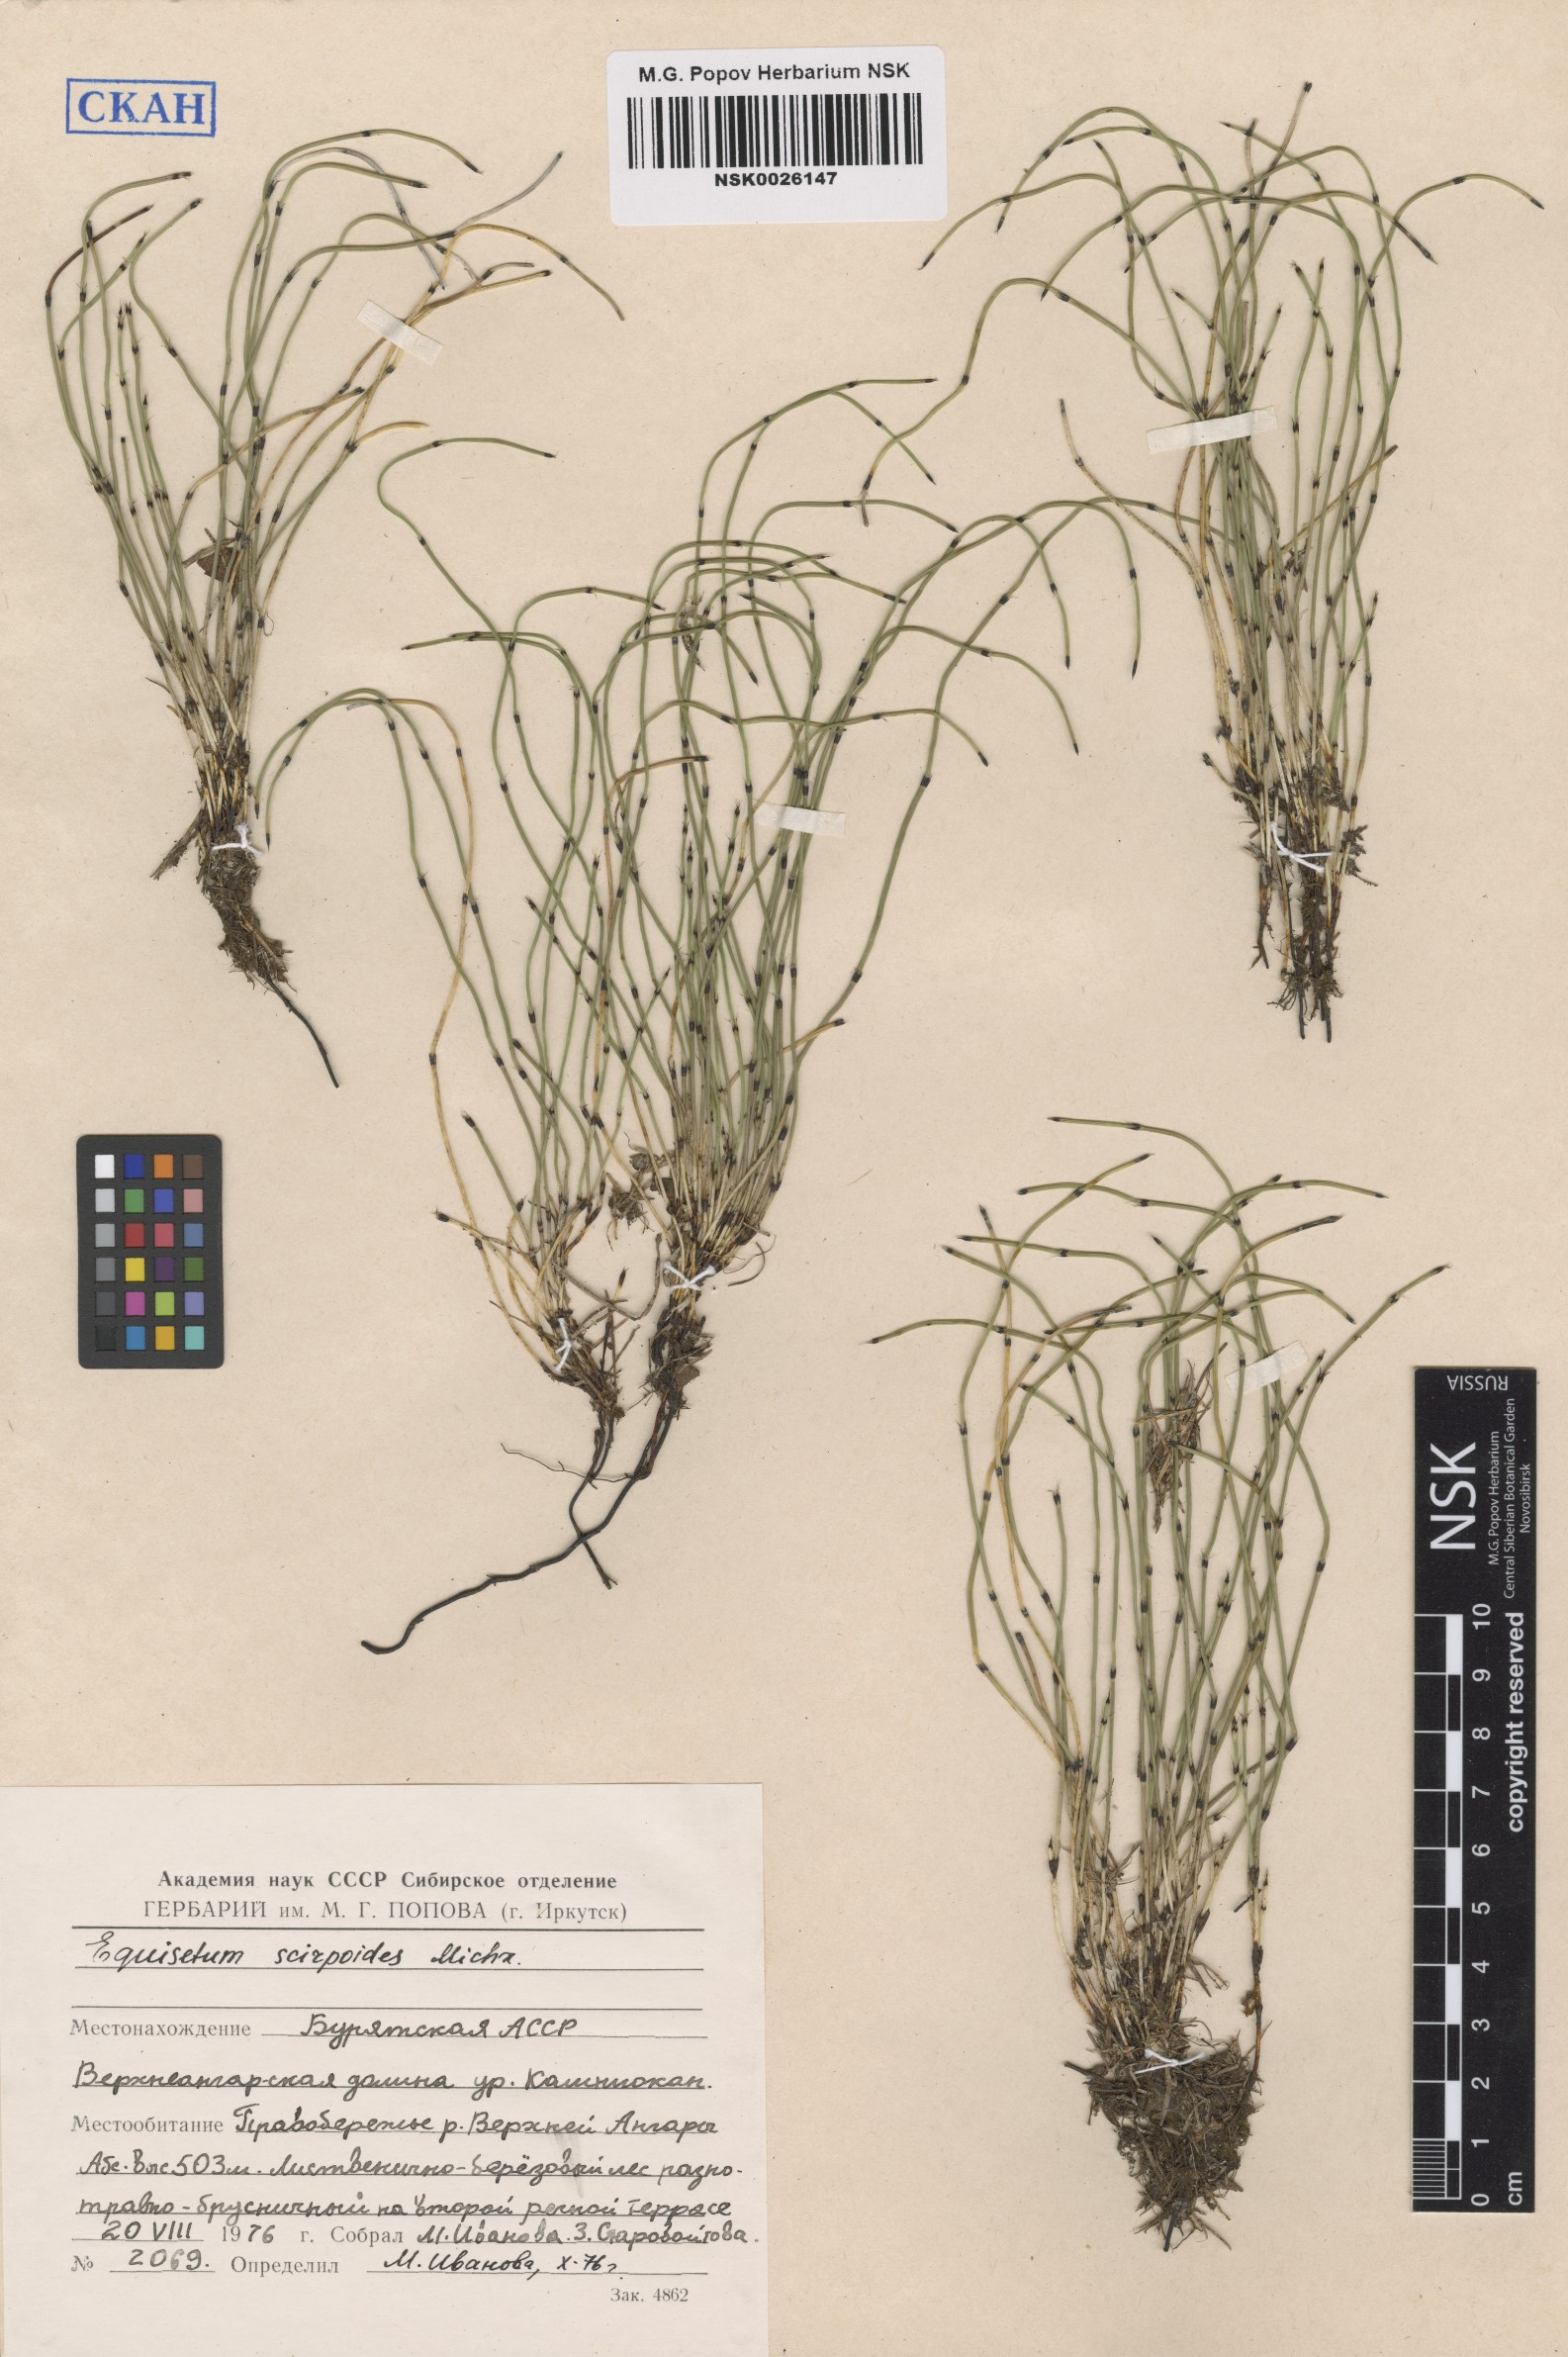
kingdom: Plantae
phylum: Tracheophyta
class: Polypodiopsida
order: Equisetales
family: Equisetaceae
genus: Equisetum
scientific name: Equisetum scirpoides
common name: Delicate horsetail
